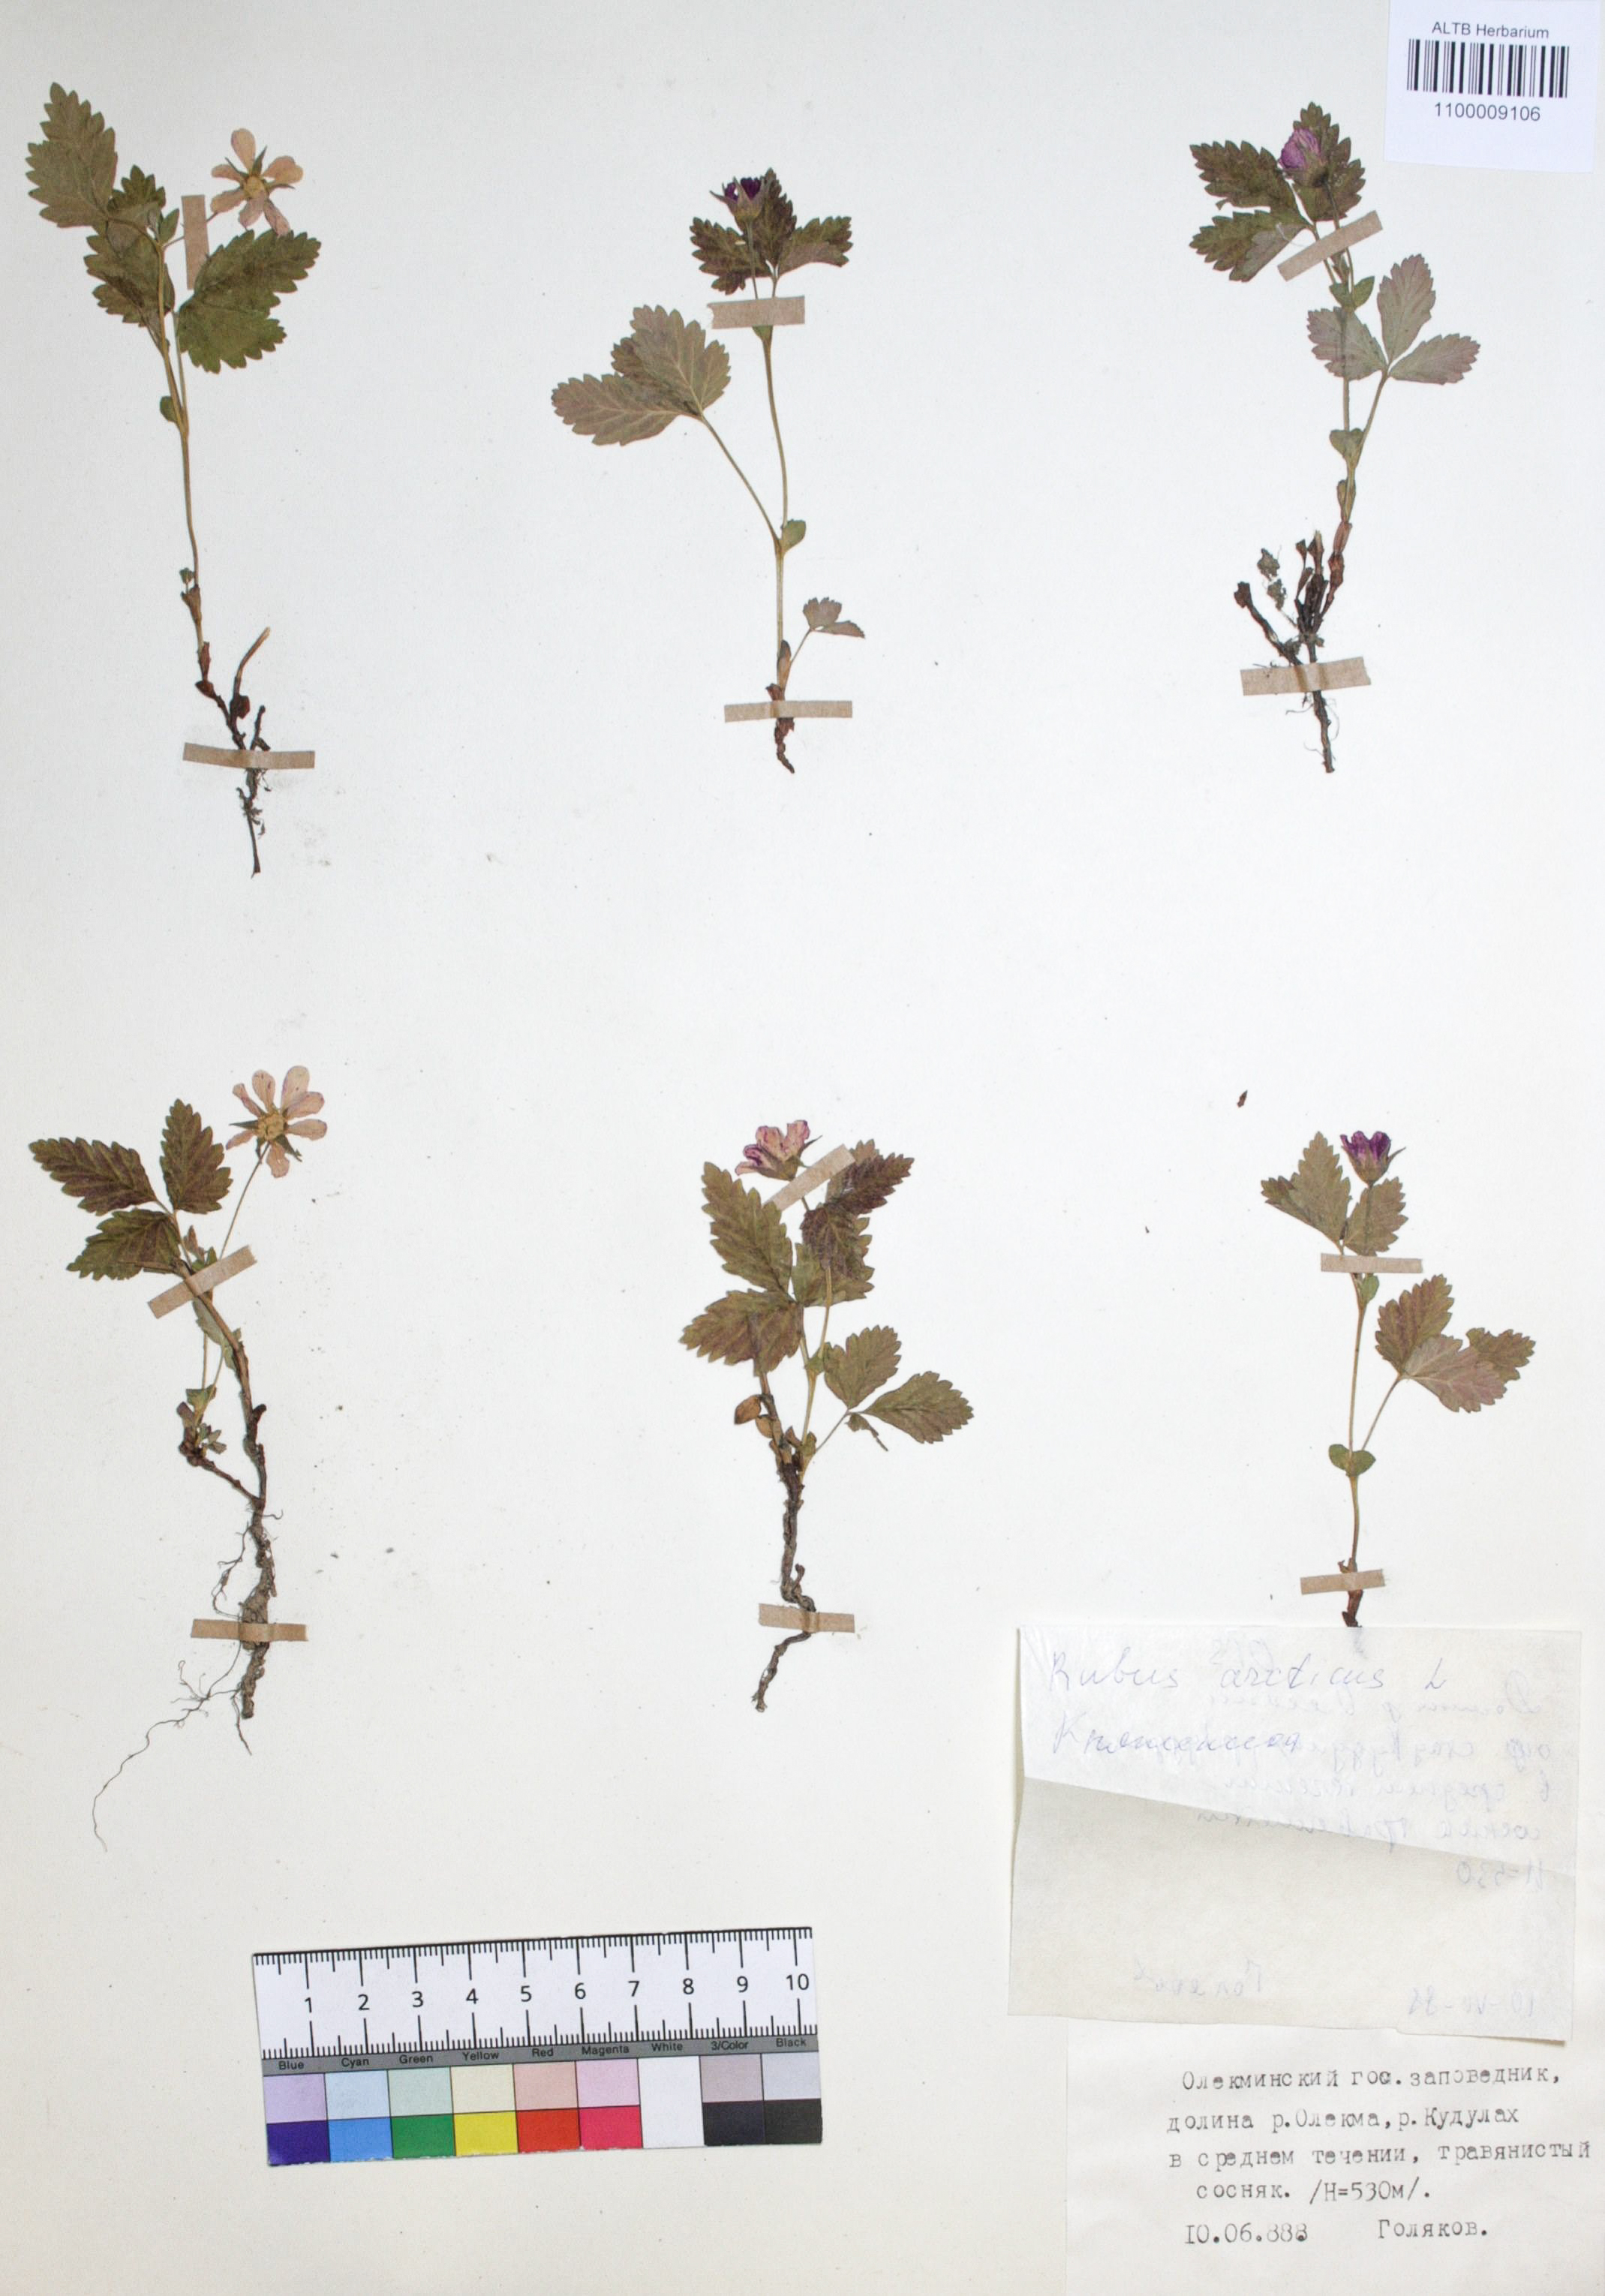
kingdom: Plantae
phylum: Tracheophyta
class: Magnoliopsida
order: Rosales
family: Rosaceae
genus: Rubus
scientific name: Rubus arcticus
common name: Arctic bramble
